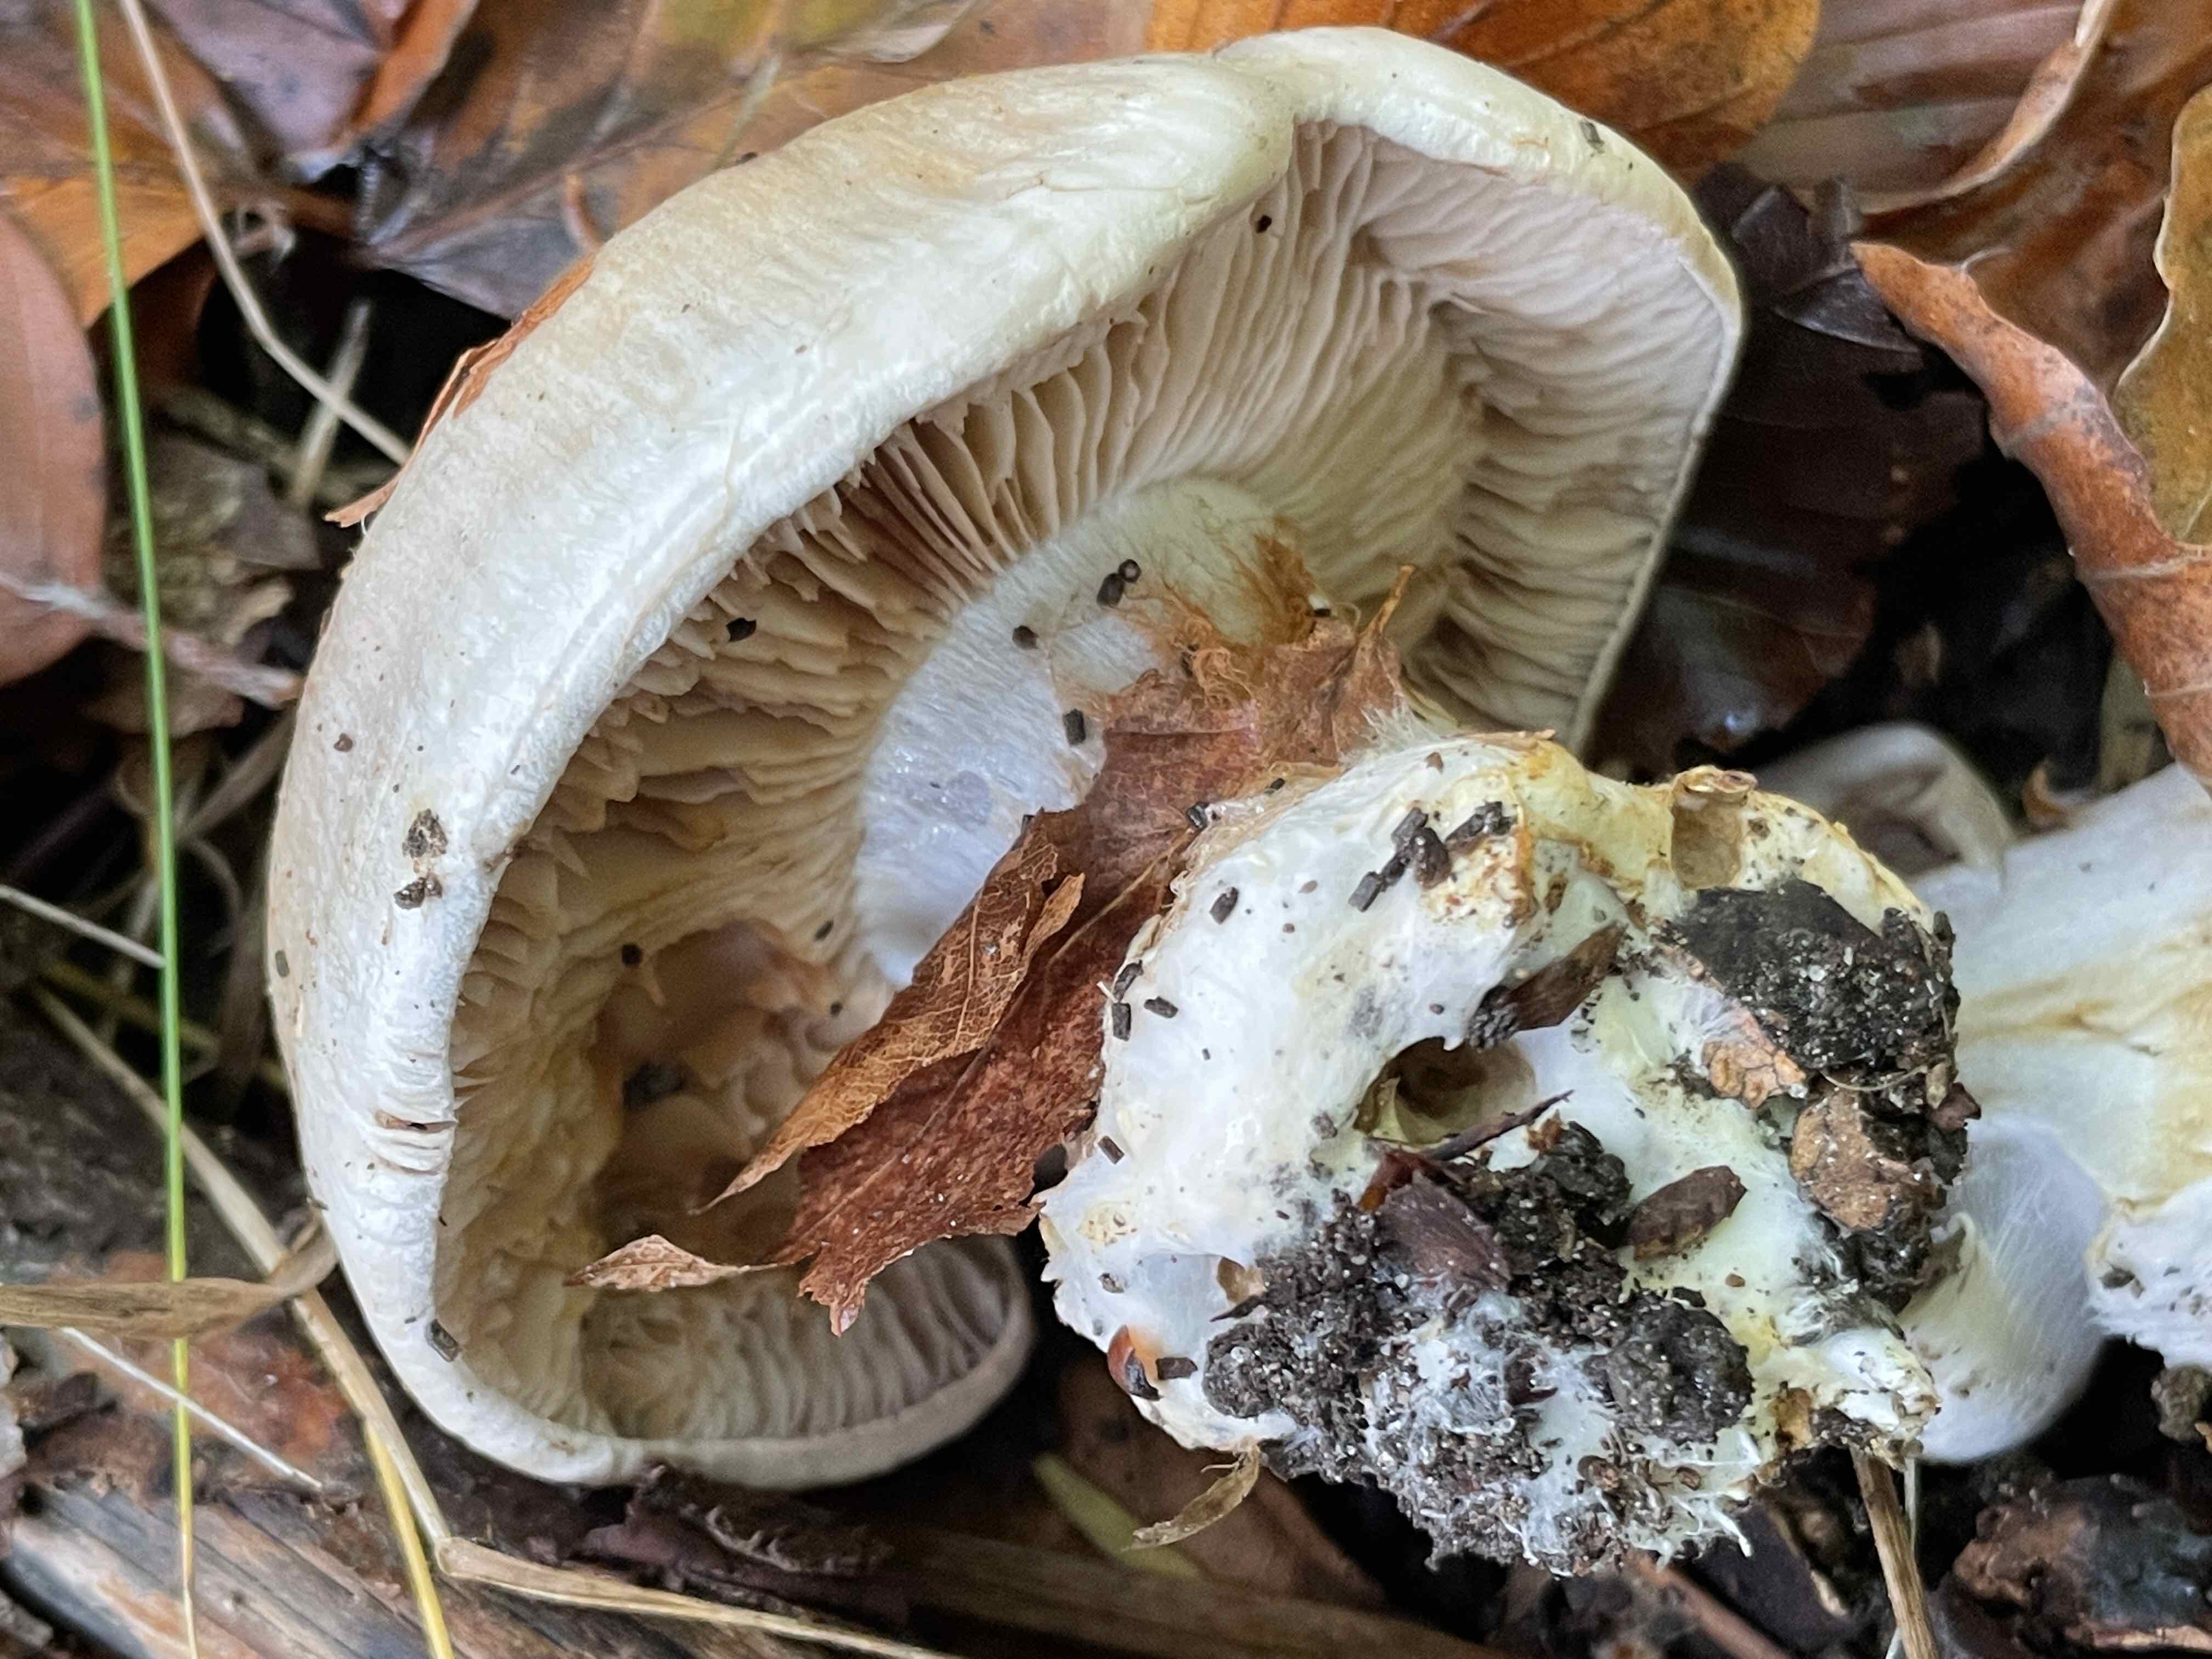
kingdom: Fungi
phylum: Basidiomycota
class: Agaricomycetes
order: Agaricales
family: Cortinariaceae
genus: Cortinarius
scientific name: Cortinarius foetens
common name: stribet slørhat
